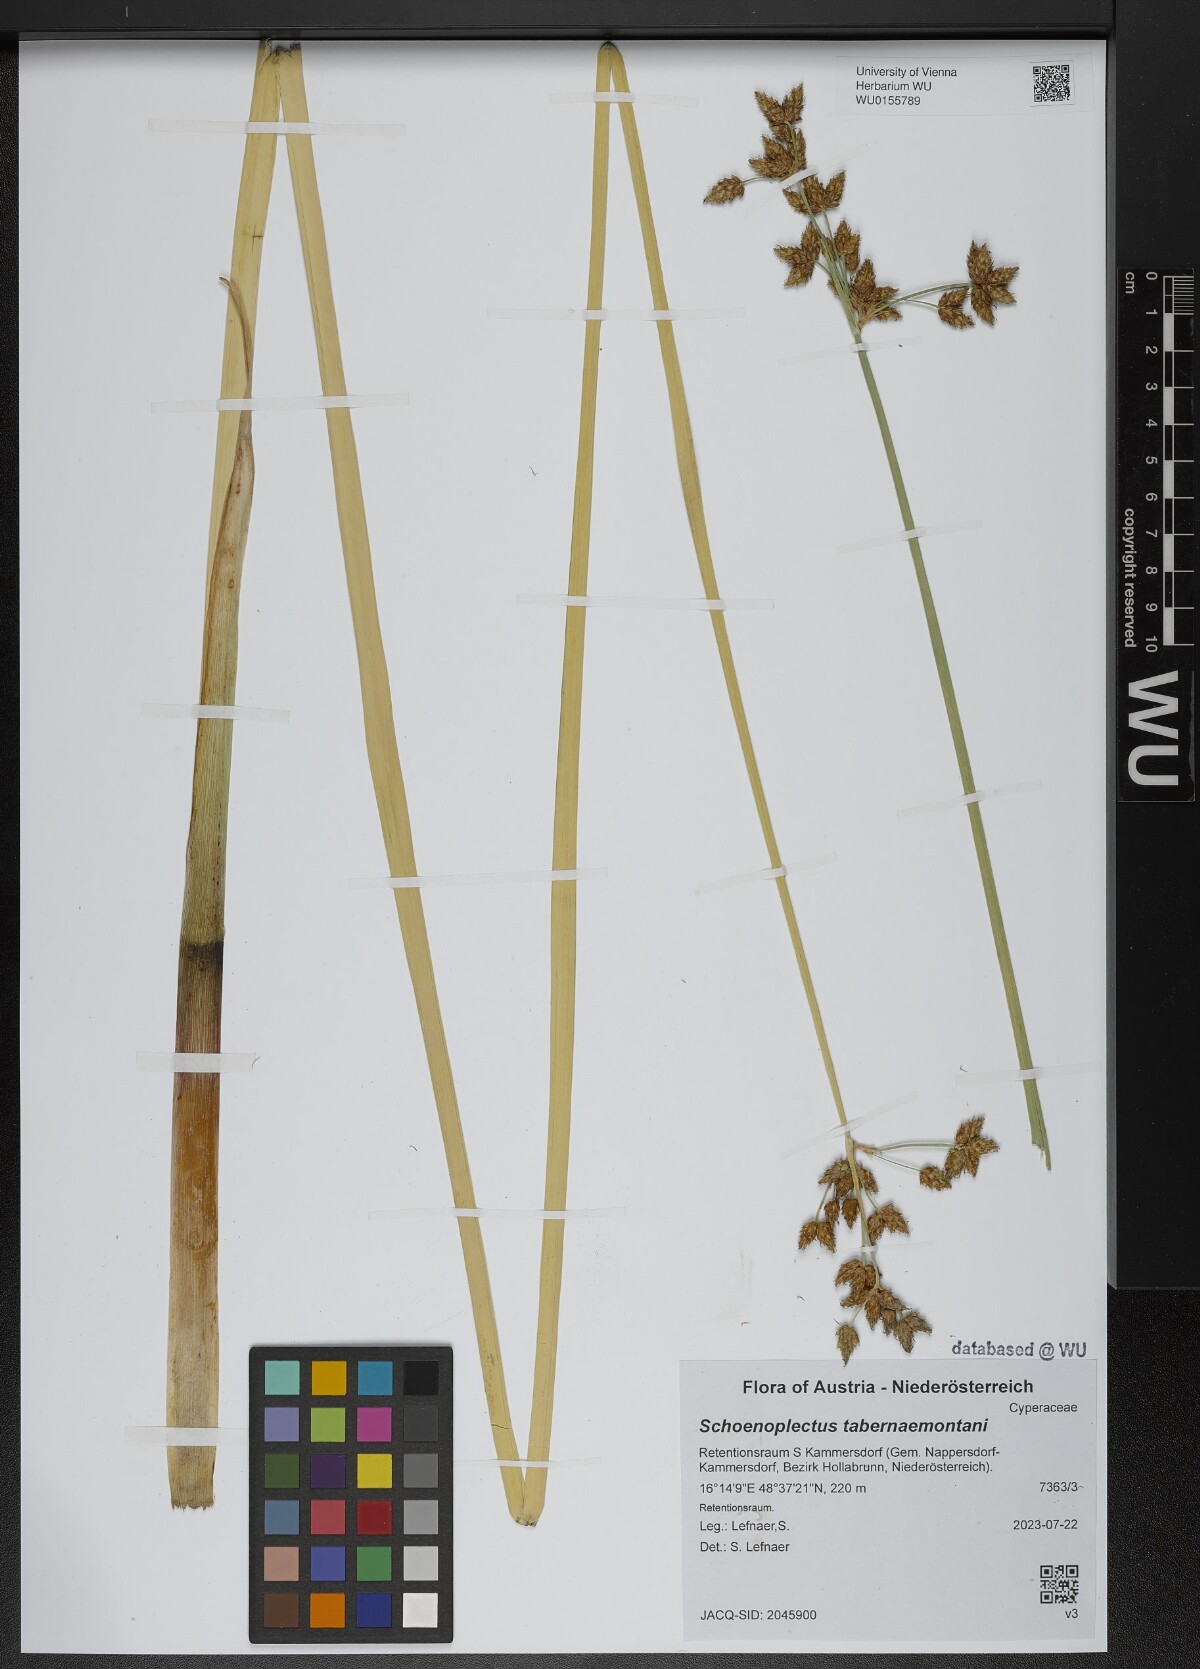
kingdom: Plantae
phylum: Tracheophyta
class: Liliopsida
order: Poales
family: Cyperaceae
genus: Schoenoplectus
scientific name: Schoenoplectus tabernaemontani
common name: Grey club-rush
